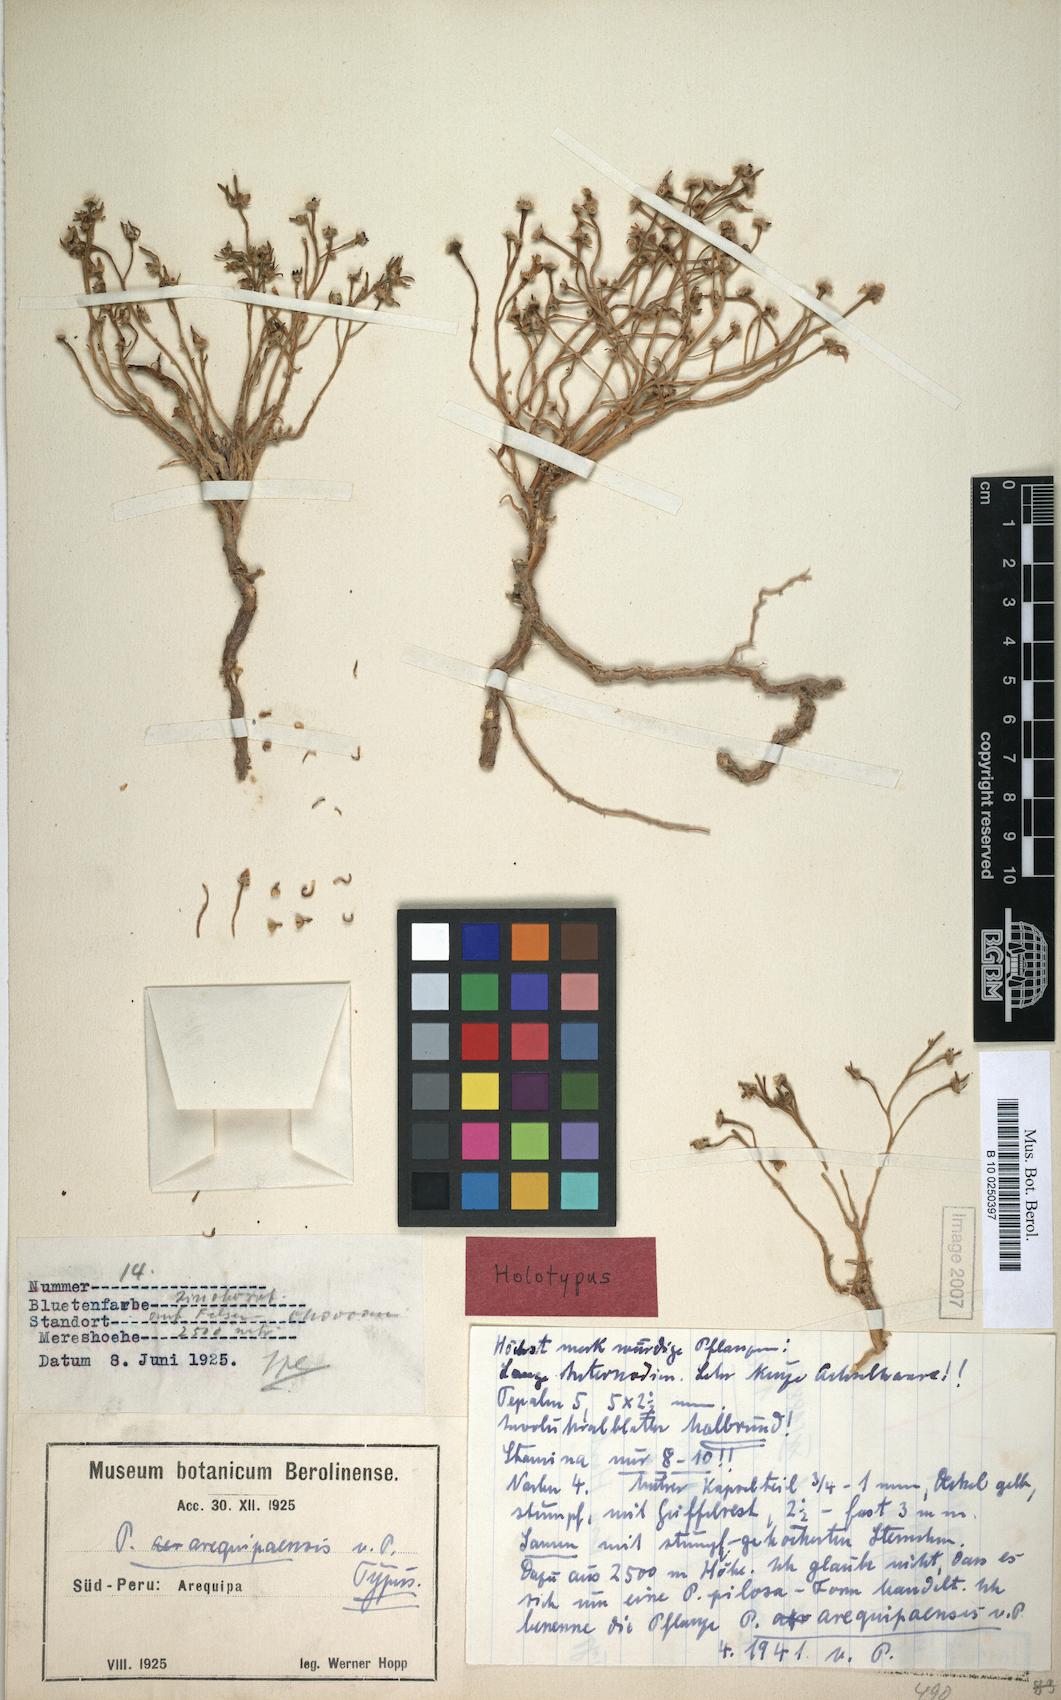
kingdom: Plantae
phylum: Tracheophyta
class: Magnoliopsida
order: Caryophyllales
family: Portulacaceae
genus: Portulaca
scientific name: Portulaca perennis
